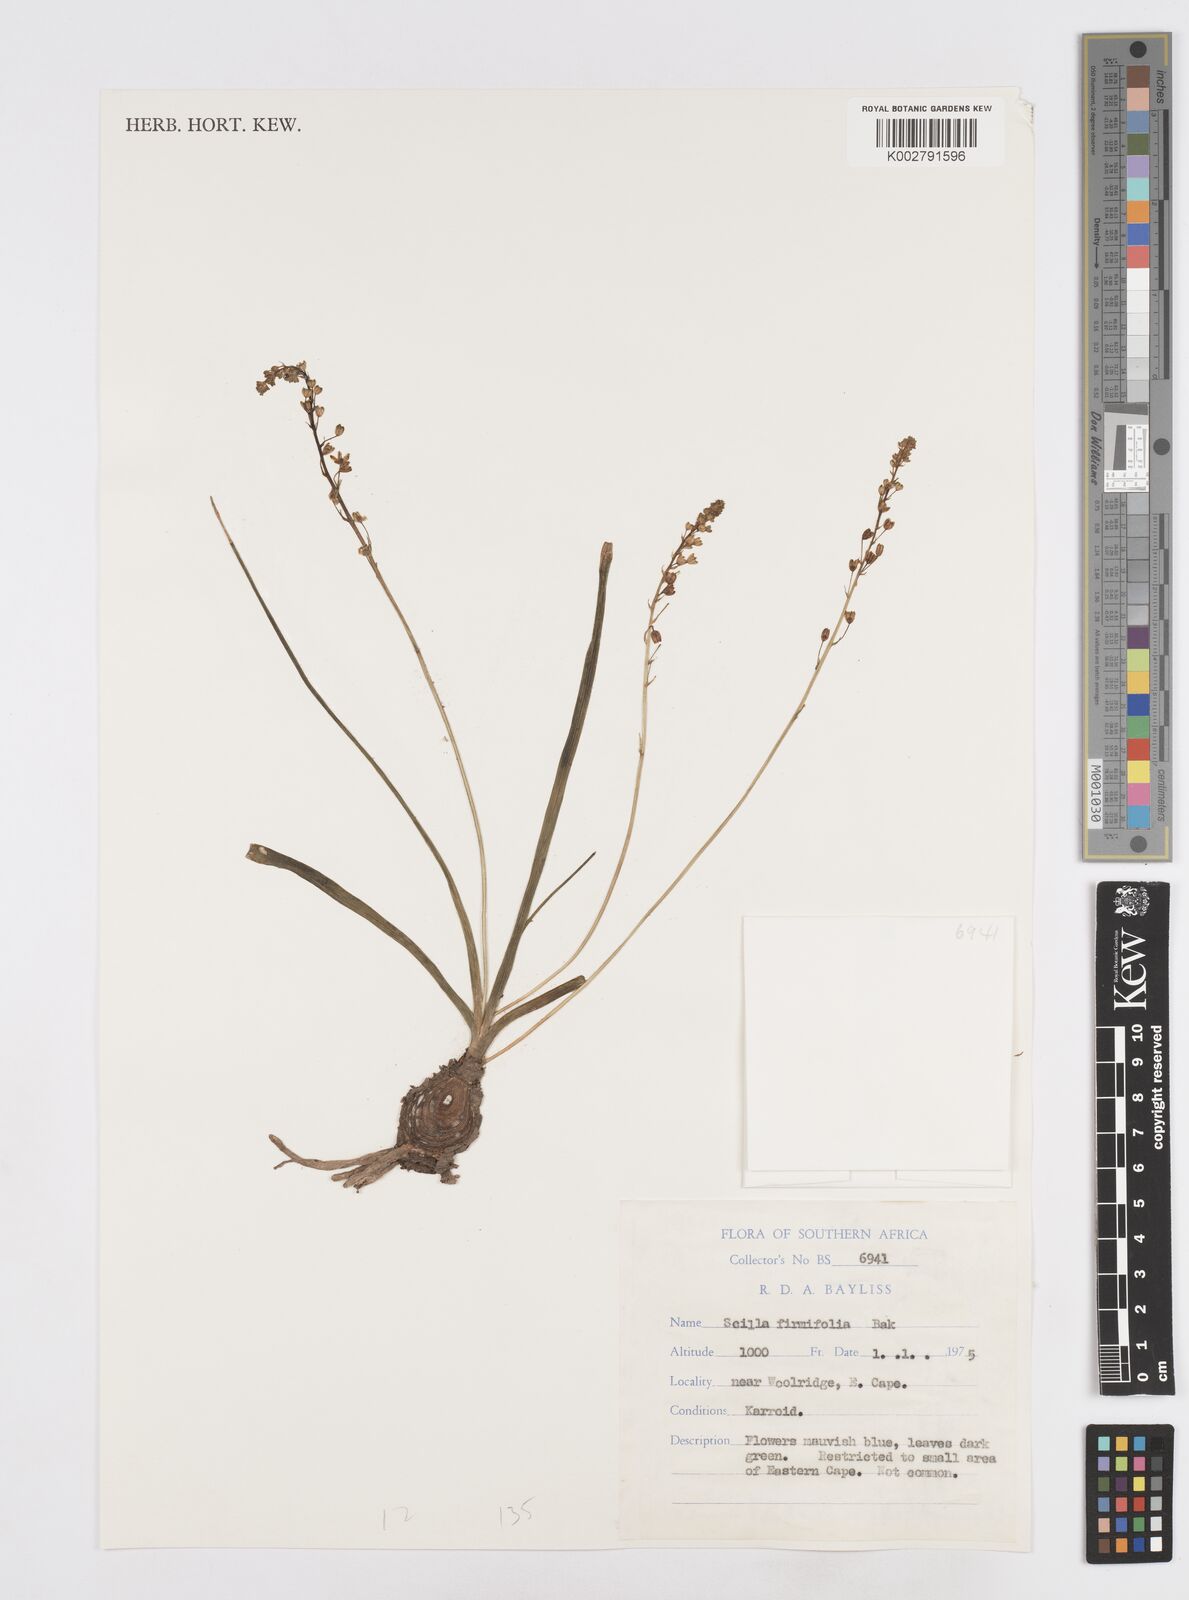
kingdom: Plantae
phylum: Tracheophyta
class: Liliopsida
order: Asparagales
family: Asparagaceae
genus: Pseudoprospero
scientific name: Pseudoprospero firmifolium
